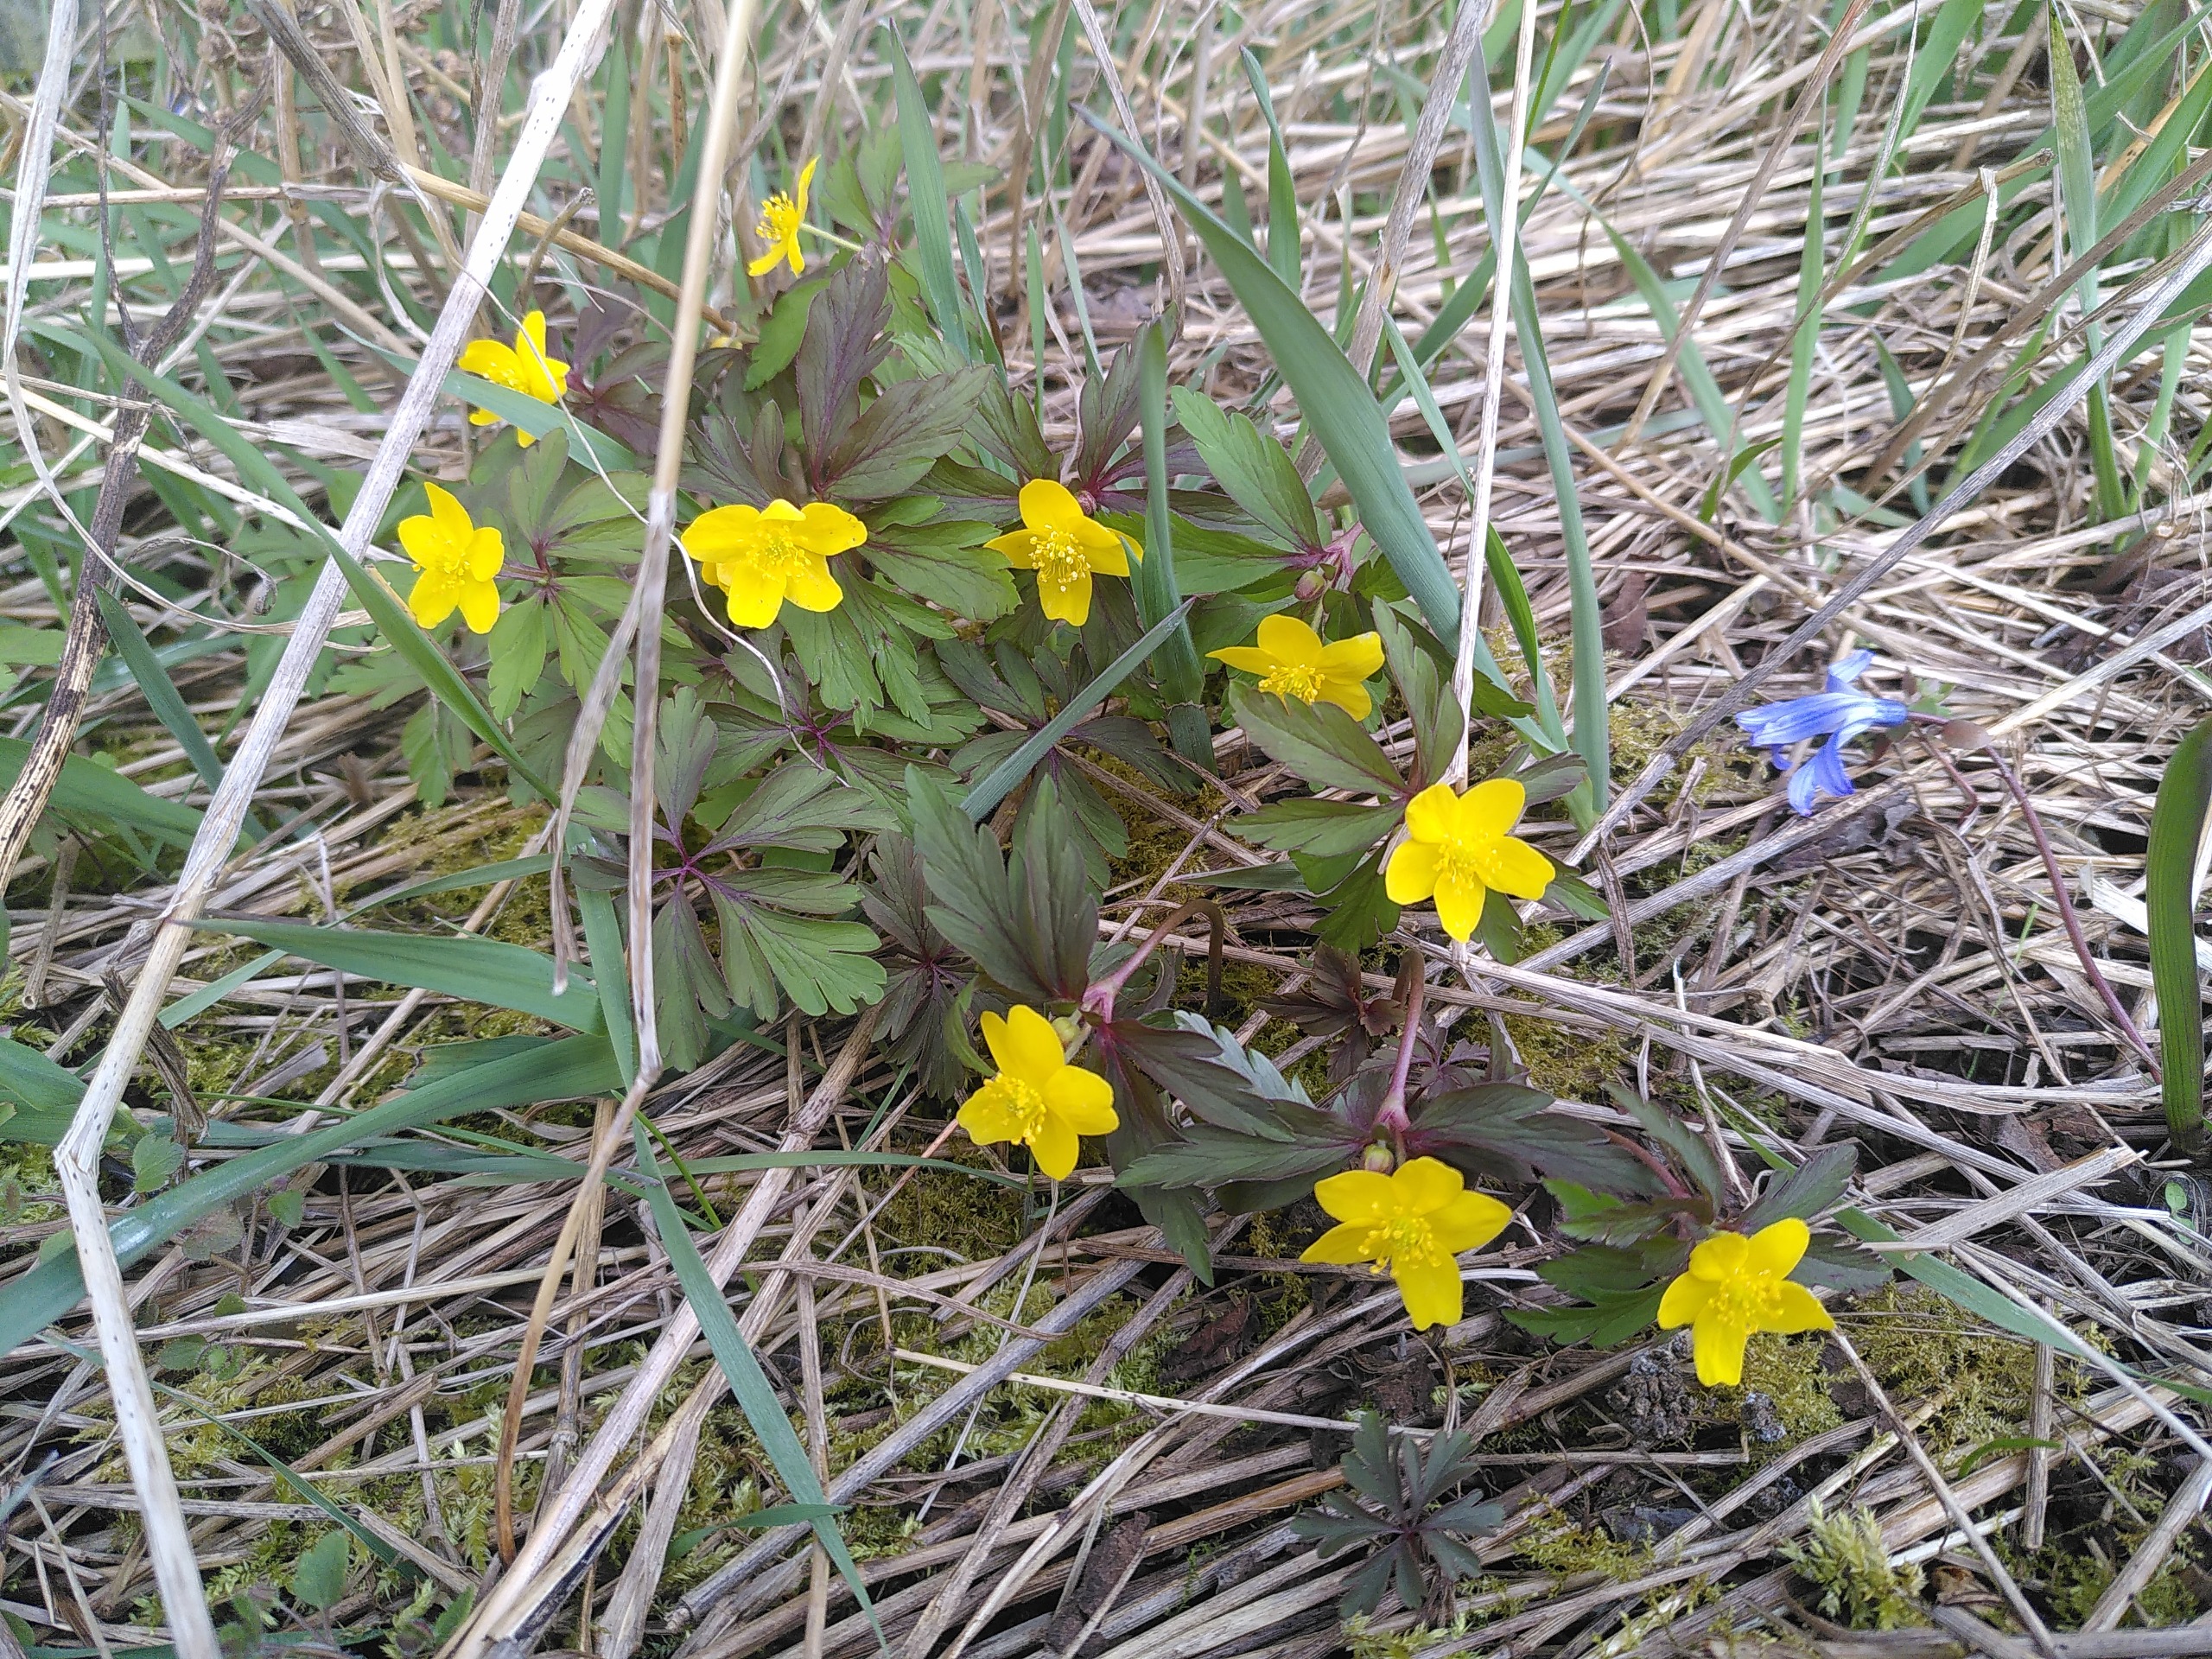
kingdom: Plantae
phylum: Tracheophyta
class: Magnoliopsida
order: Ranunculales
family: Ranunculaceae
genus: Anemone
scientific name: Anemone ranunculoides
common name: Gul anemone
